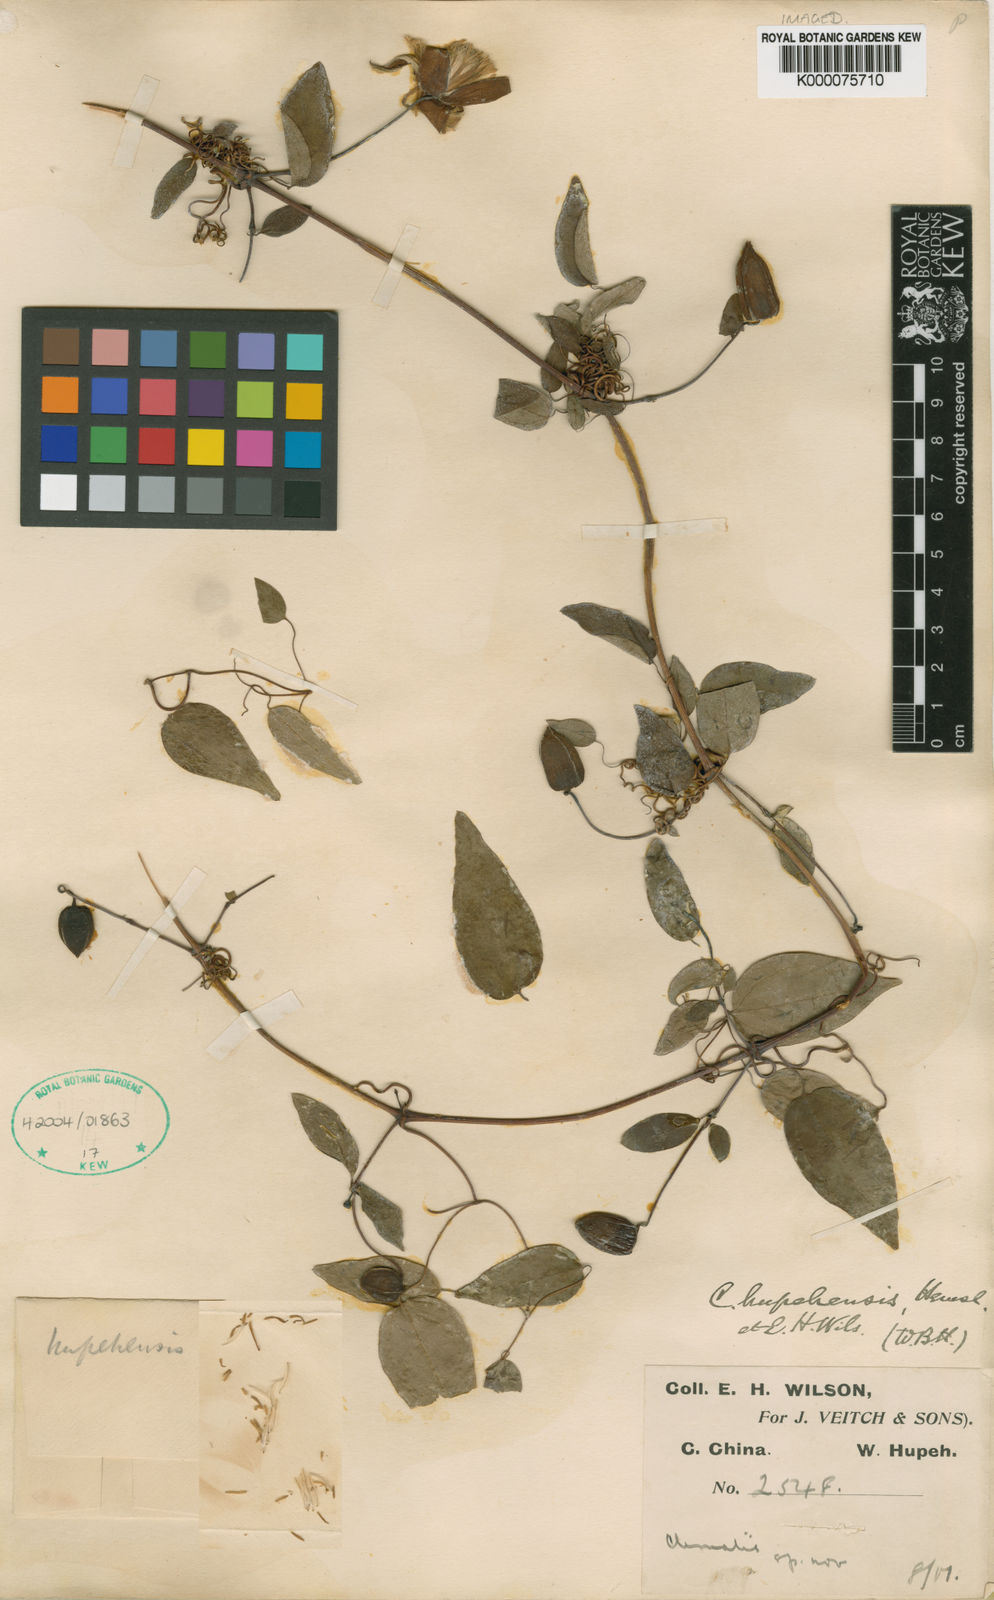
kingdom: Plantae
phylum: Tracheophyta
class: Magnoliopsida
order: Ranunculales
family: Ranunculaceae
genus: Clematis
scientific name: Clematis otophora
